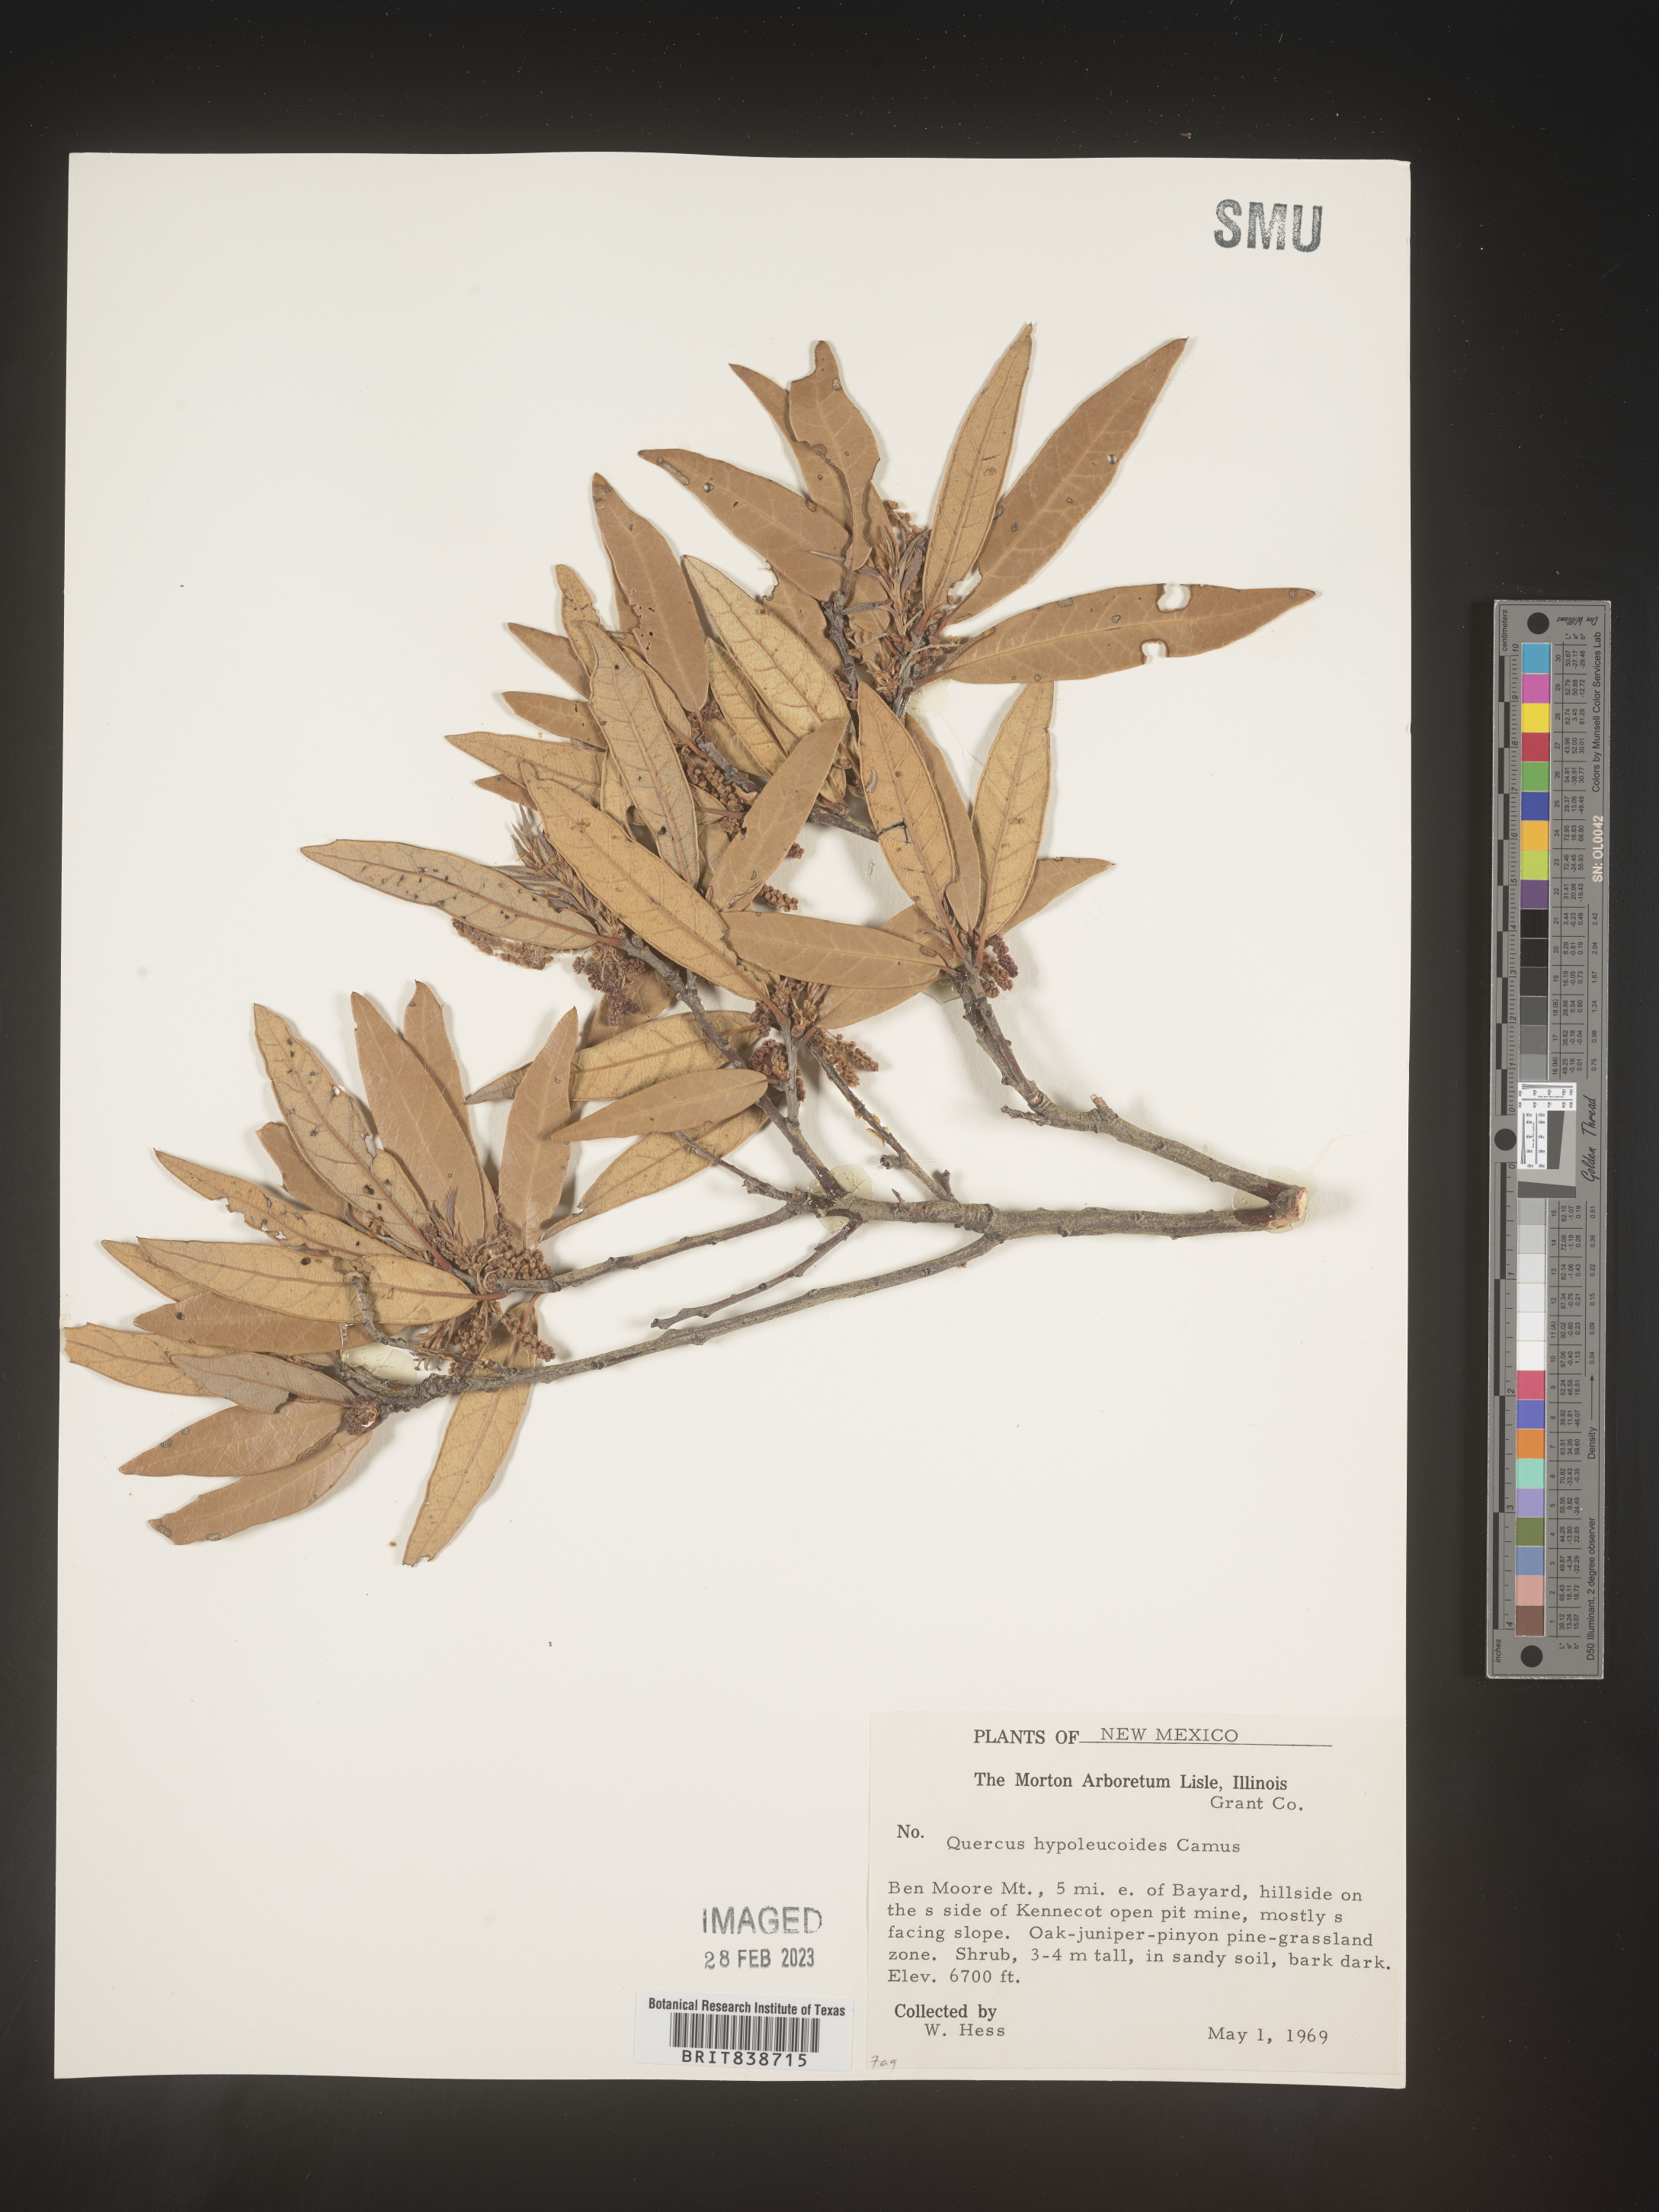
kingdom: Plantae
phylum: Tracheophyta
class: Magnoliopsida
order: Fagales
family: Fagaceae
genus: Quercus
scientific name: Quercus
